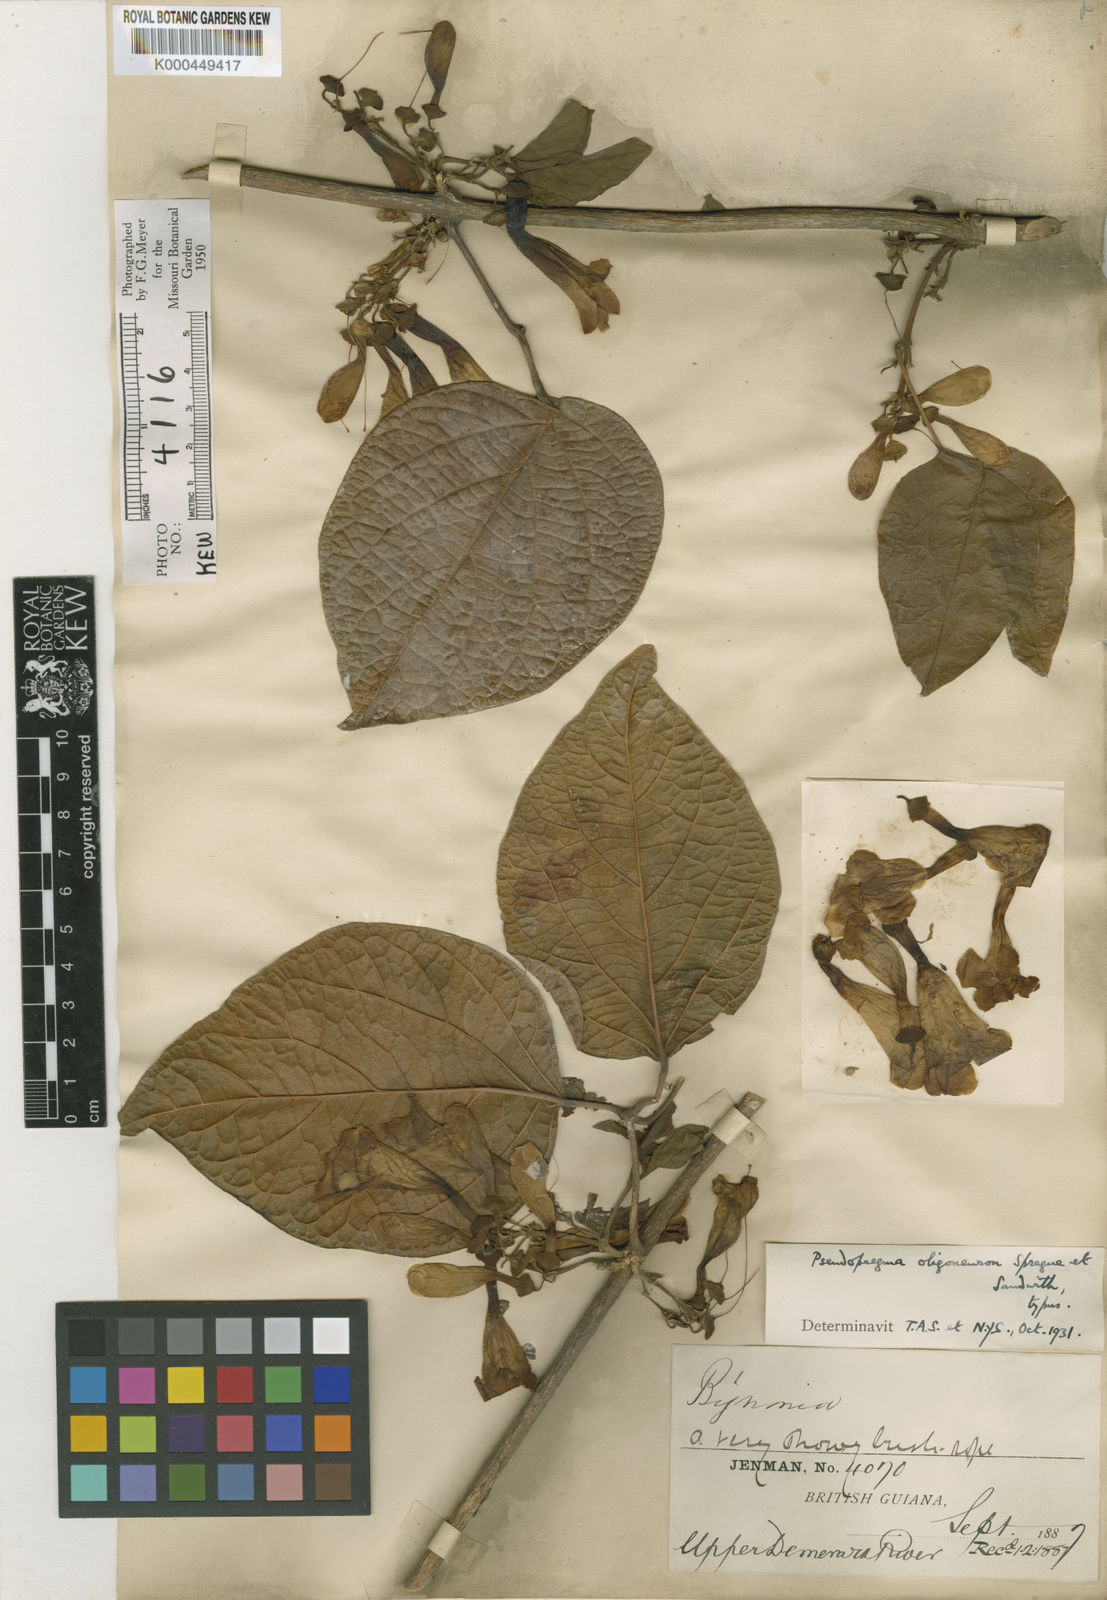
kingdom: Plantae
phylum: Tracheophyta
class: Magnoliopsida
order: Lamiales
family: Bignoniaceae
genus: Anemopaegma
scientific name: Anemopaegma oligoneuron
